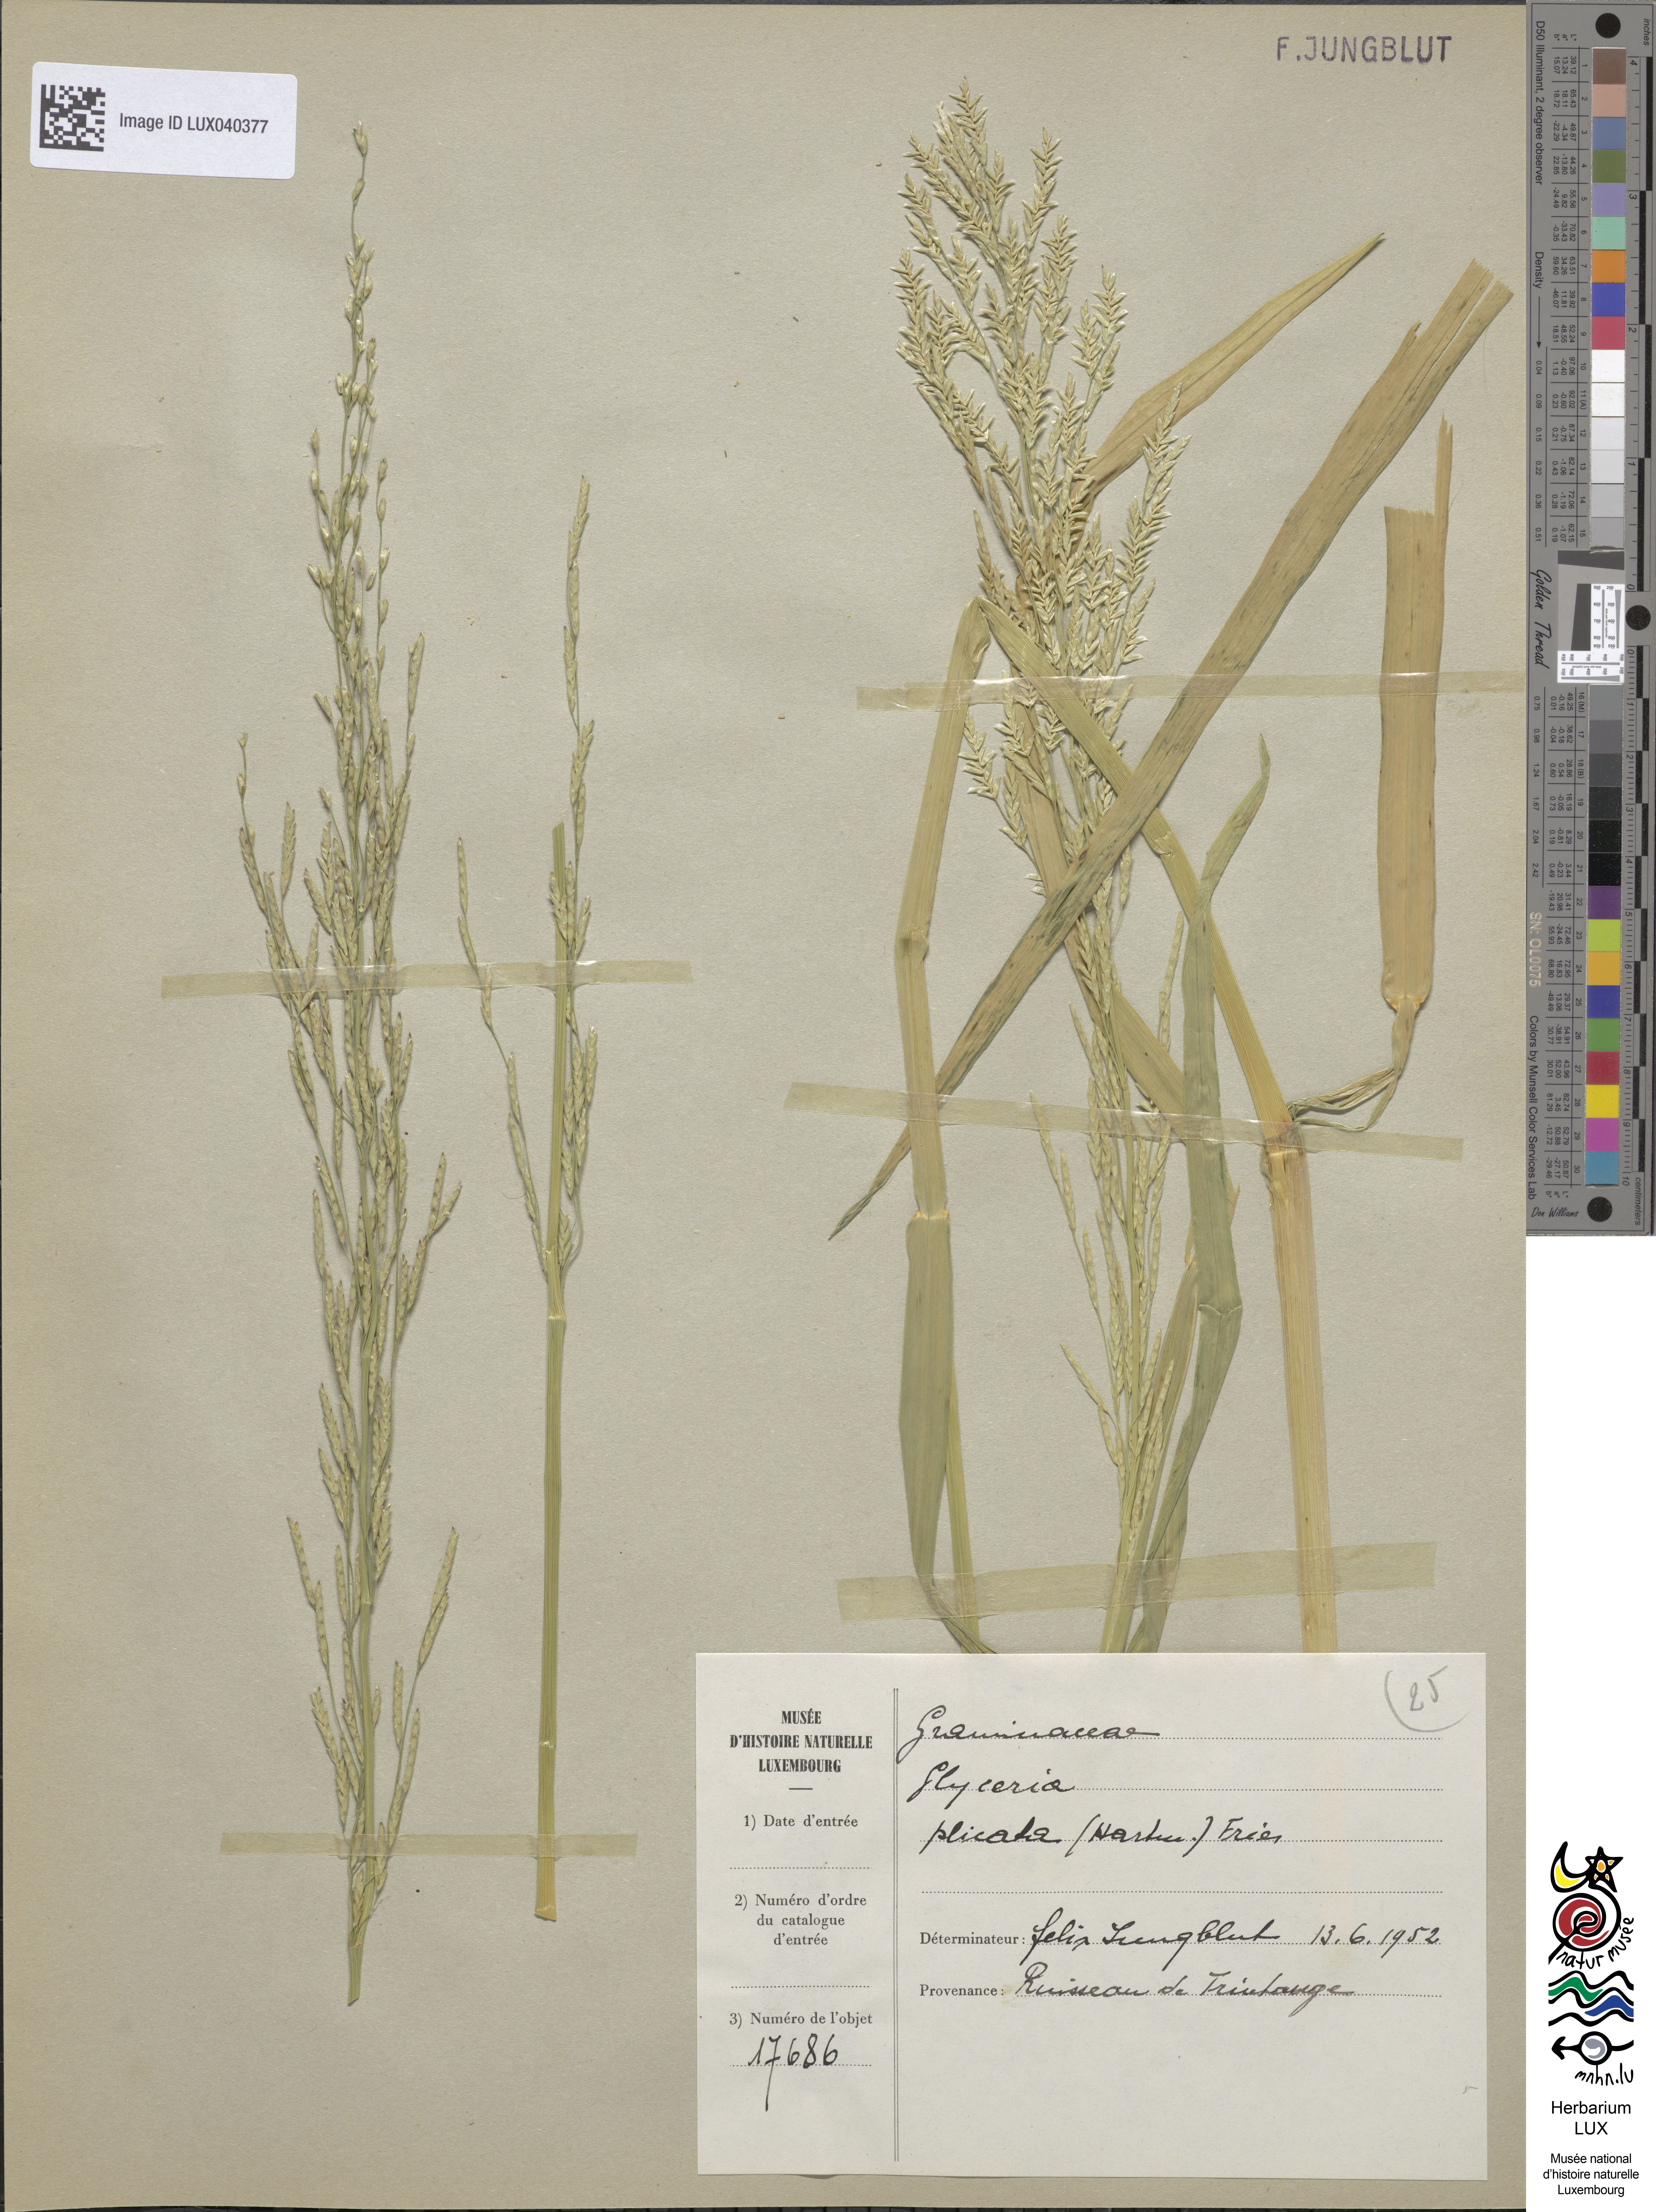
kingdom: Plantae
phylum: Tracheophyta
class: Liliopsida
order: Poales
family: Poaceae
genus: Glyceria
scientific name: Glyceria notata
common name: Plicate sweet-grass
